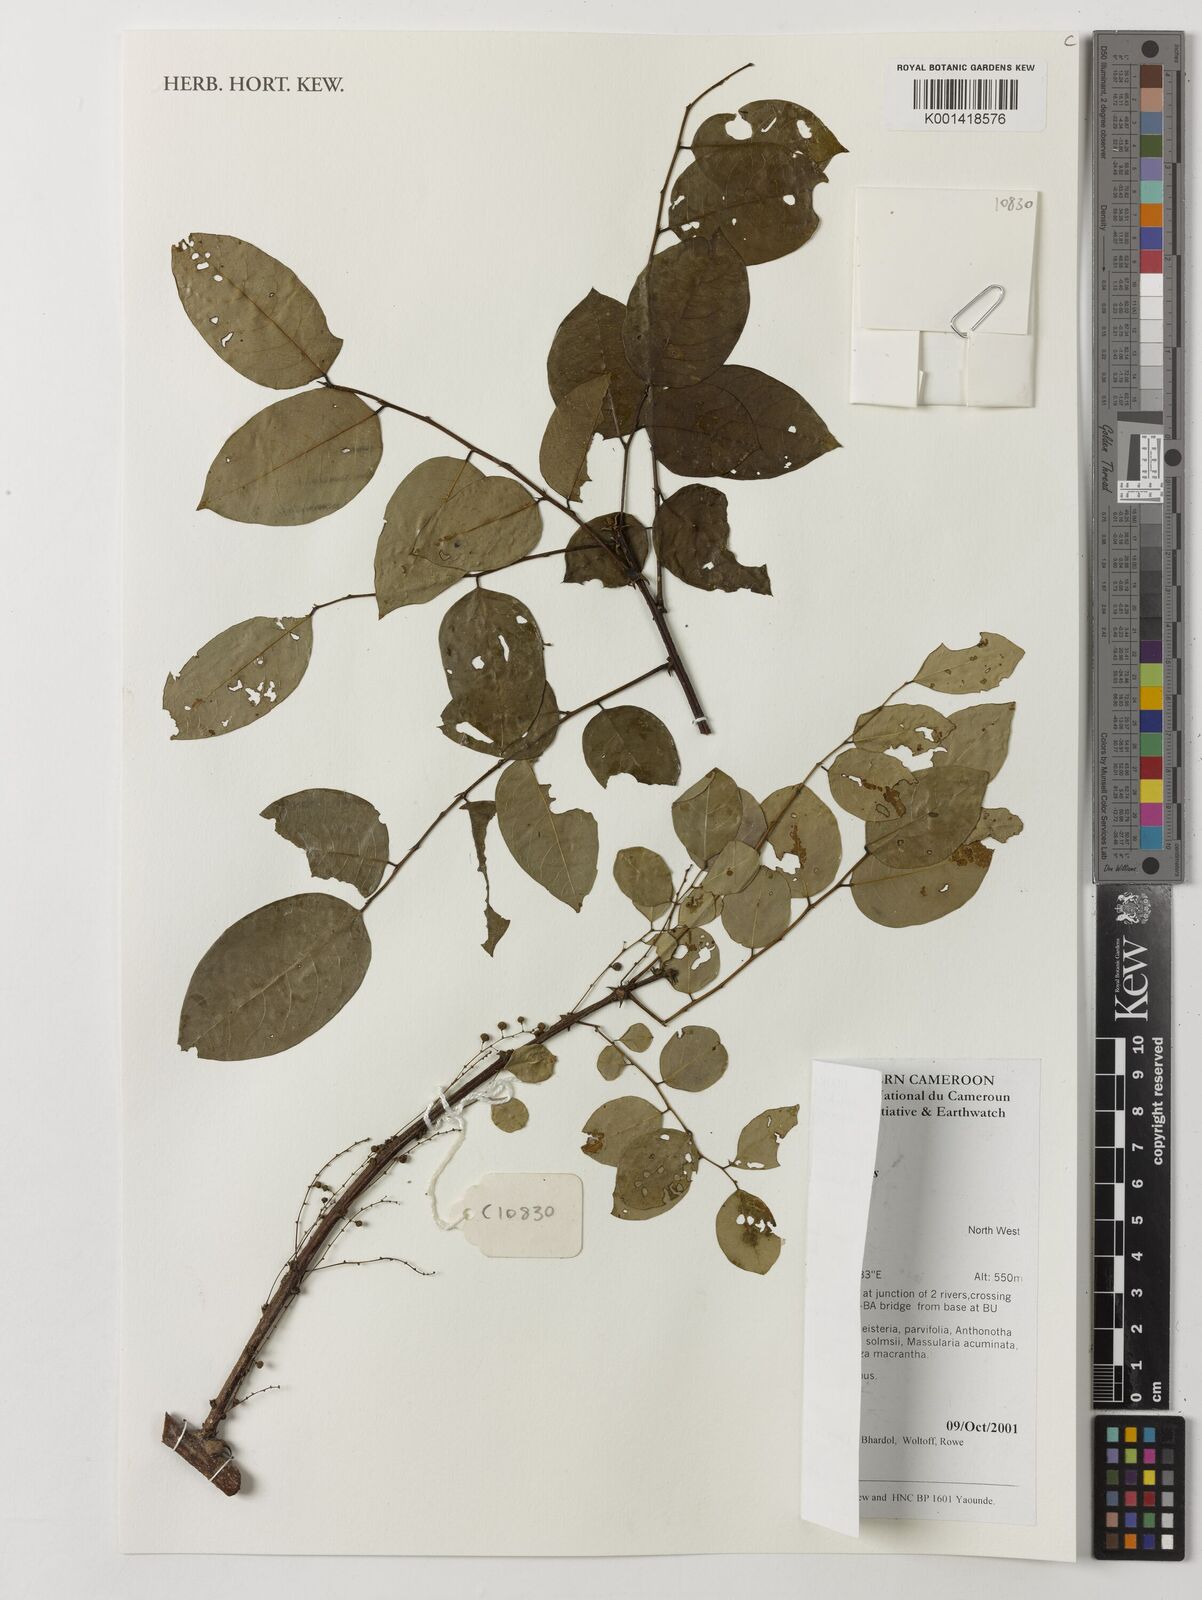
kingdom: Plantae
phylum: Tracheophyta
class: Magnoliopsida
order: Malpighiales
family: Phyllanthaceae
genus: Phyllanthus
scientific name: Phyllanthus muellerianus
